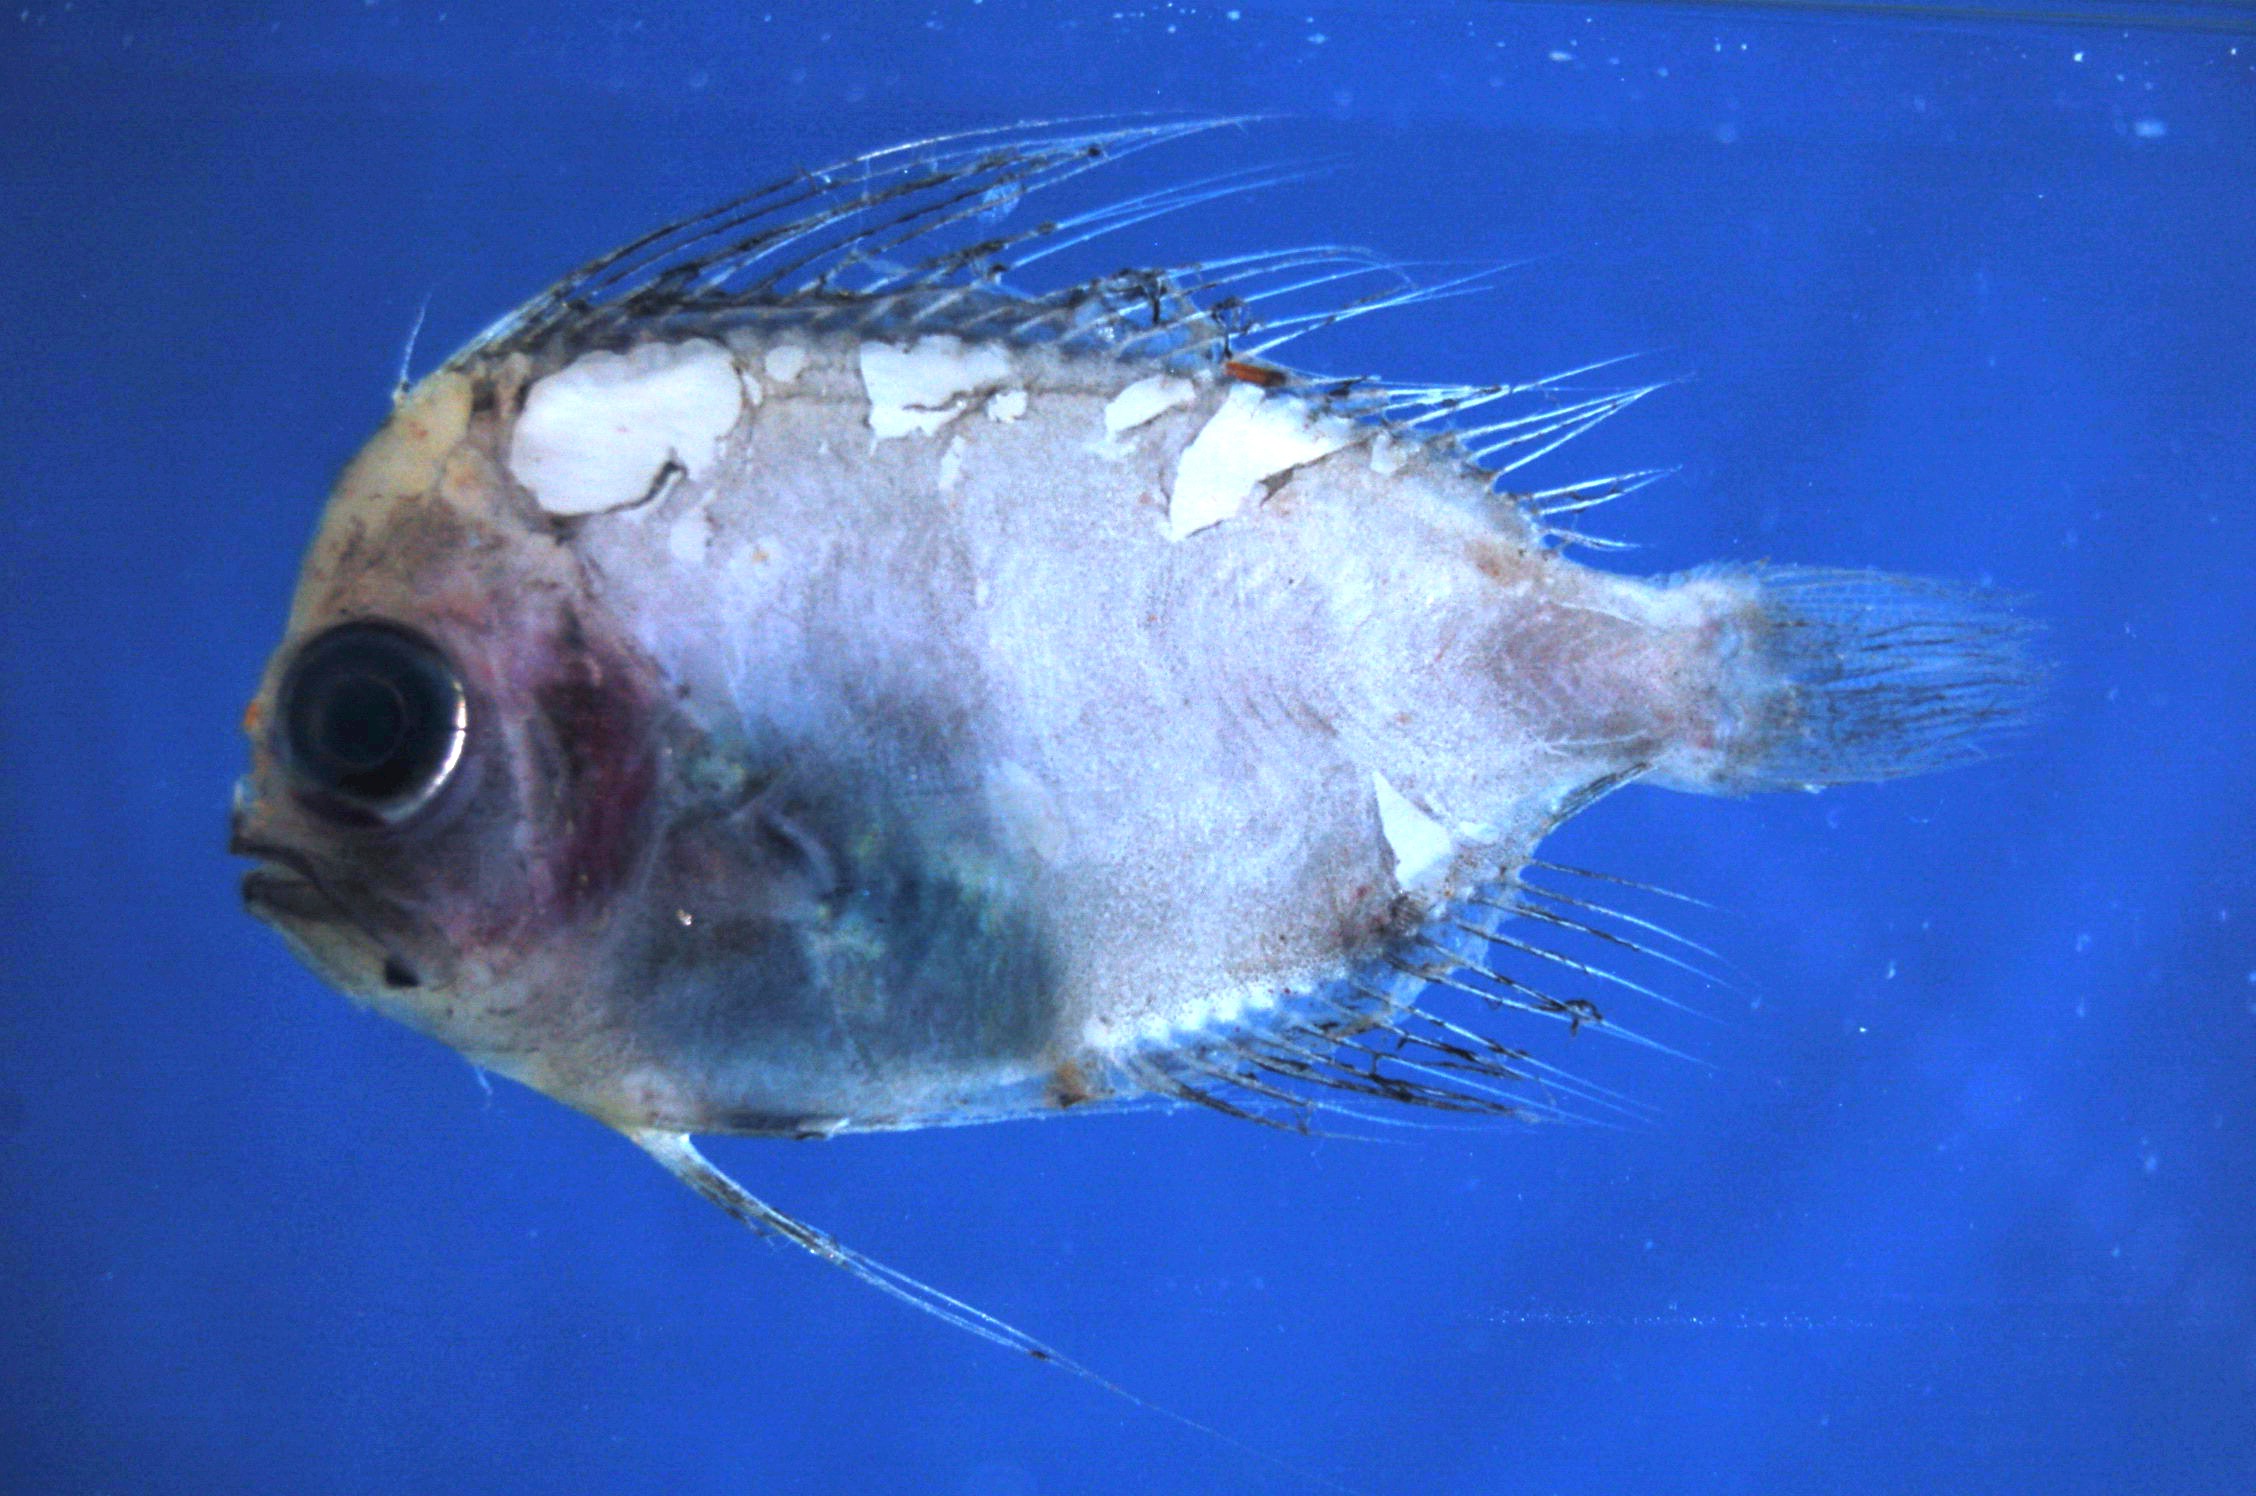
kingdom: Animalia
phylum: Chordata
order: Perciformes
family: Caristiidae
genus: Caristius
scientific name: Caristius fasciatus
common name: Greenland manefish
